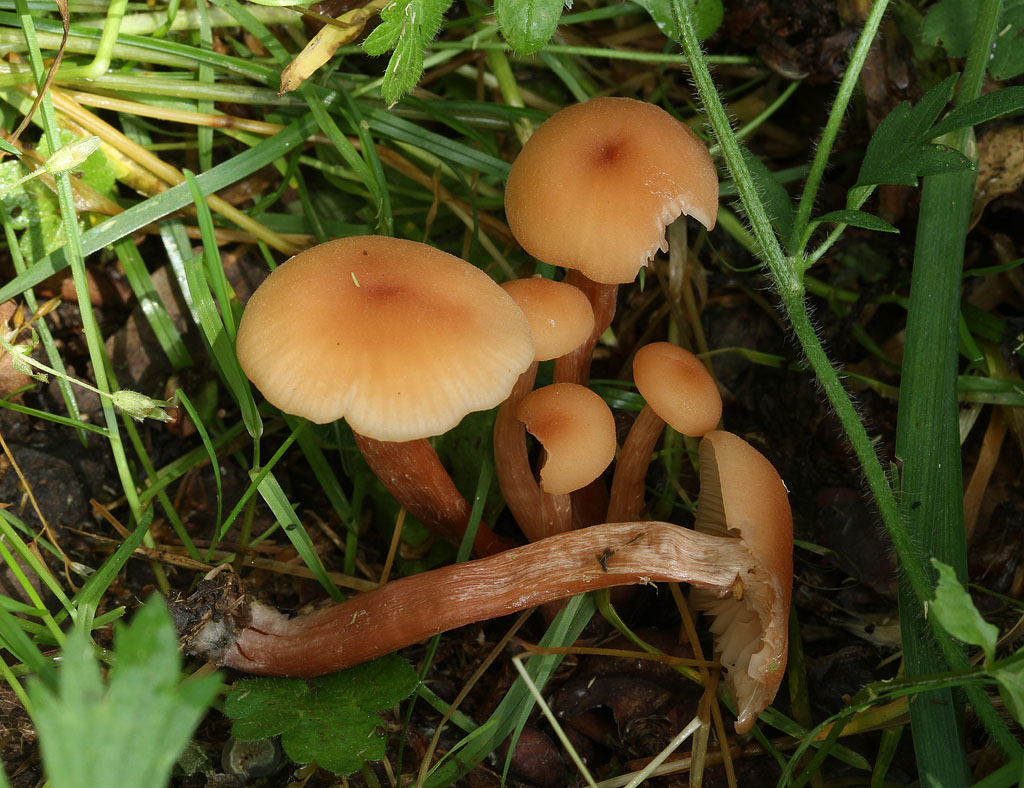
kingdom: Fungi
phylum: Basidiomycota
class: Agaricomycetes
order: Agaricales
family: Hydnangiaceae
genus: Laccaria
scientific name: Laccaria laccata
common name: rød ametysthat
